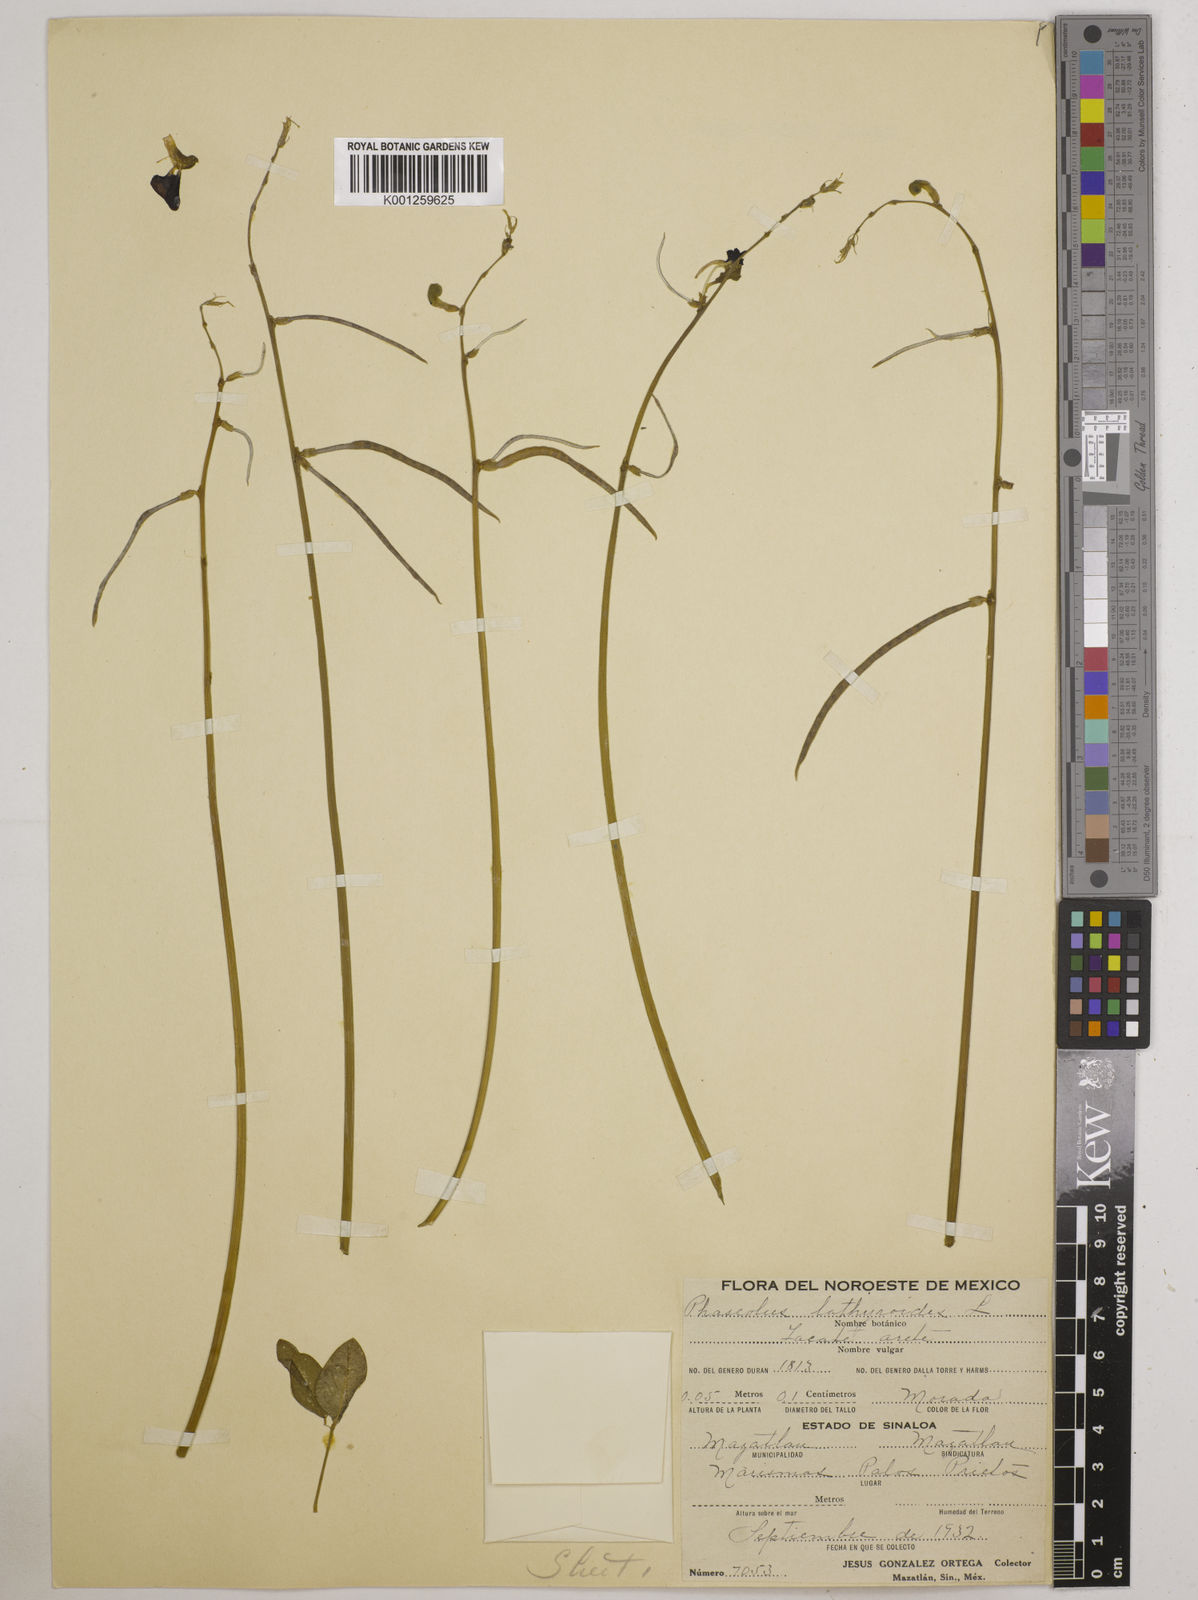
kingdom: Plantae
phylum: Tracheophyta
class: Magnoliopsida
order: Fabales
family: Fabaceae
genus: Macroptilium
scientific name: Macroptilium lathyroides
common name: Wild bushbean
